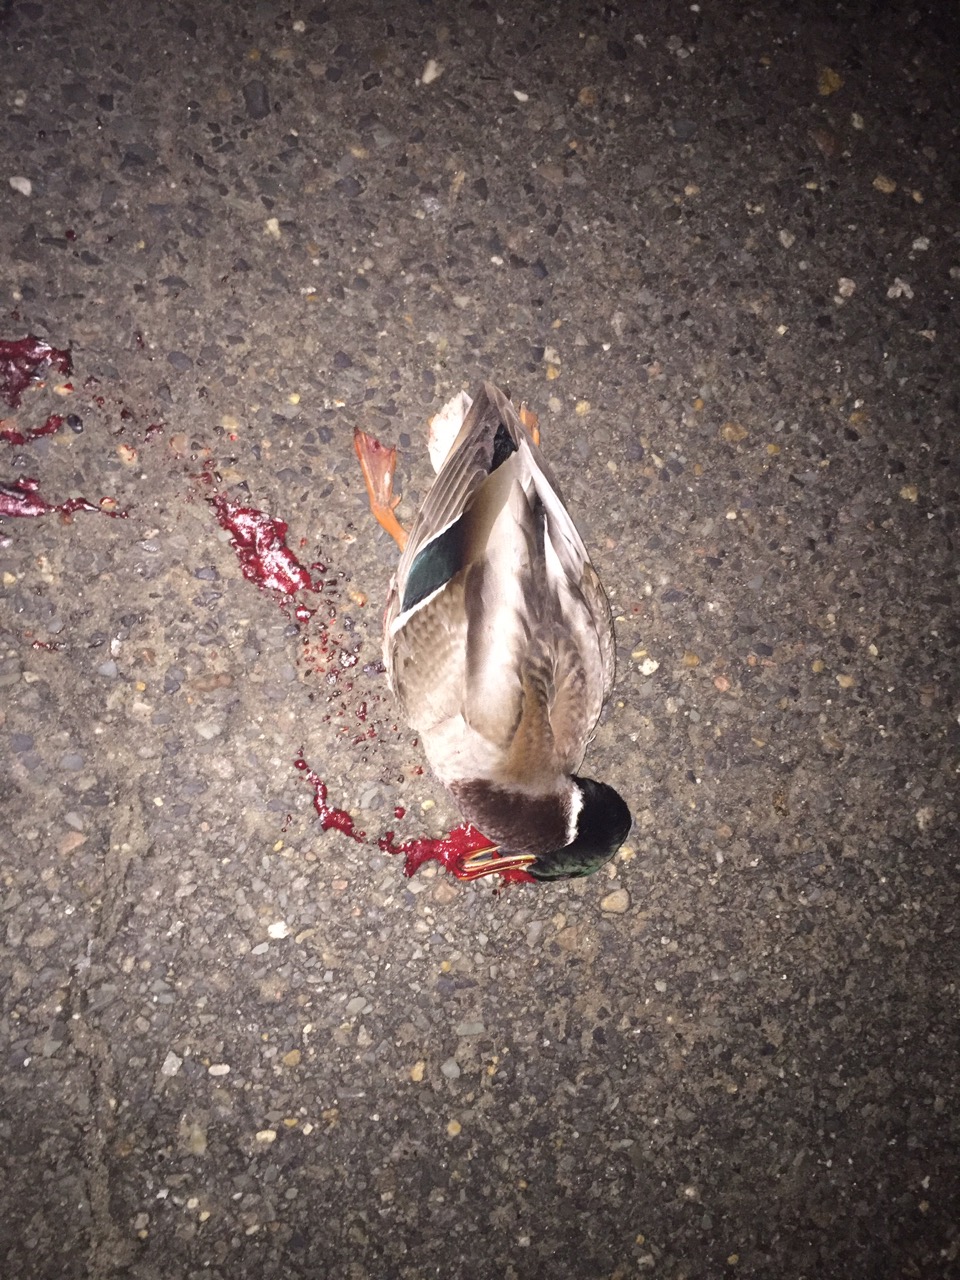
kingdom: Animalia
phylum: Chordata
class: Aves
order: Anseriformes
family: Anatidae
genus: Anas
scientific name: Anas platyrhynchos
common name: Mallard
